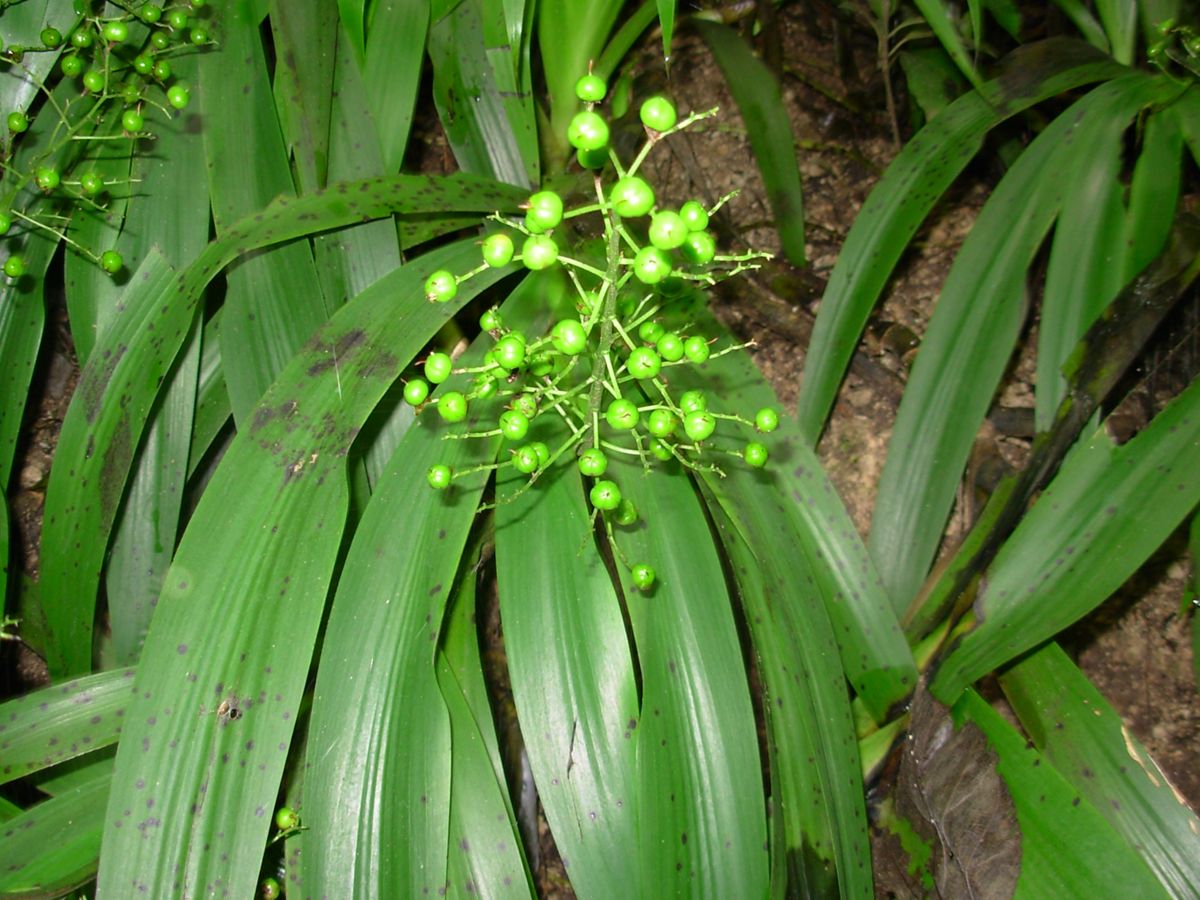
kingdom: Plantae
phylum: Tracheophyta
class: Liliopsida
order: Commelinales
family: Haemodoraceae
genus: Xiphidium
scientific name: Xiphidium caeruleum
